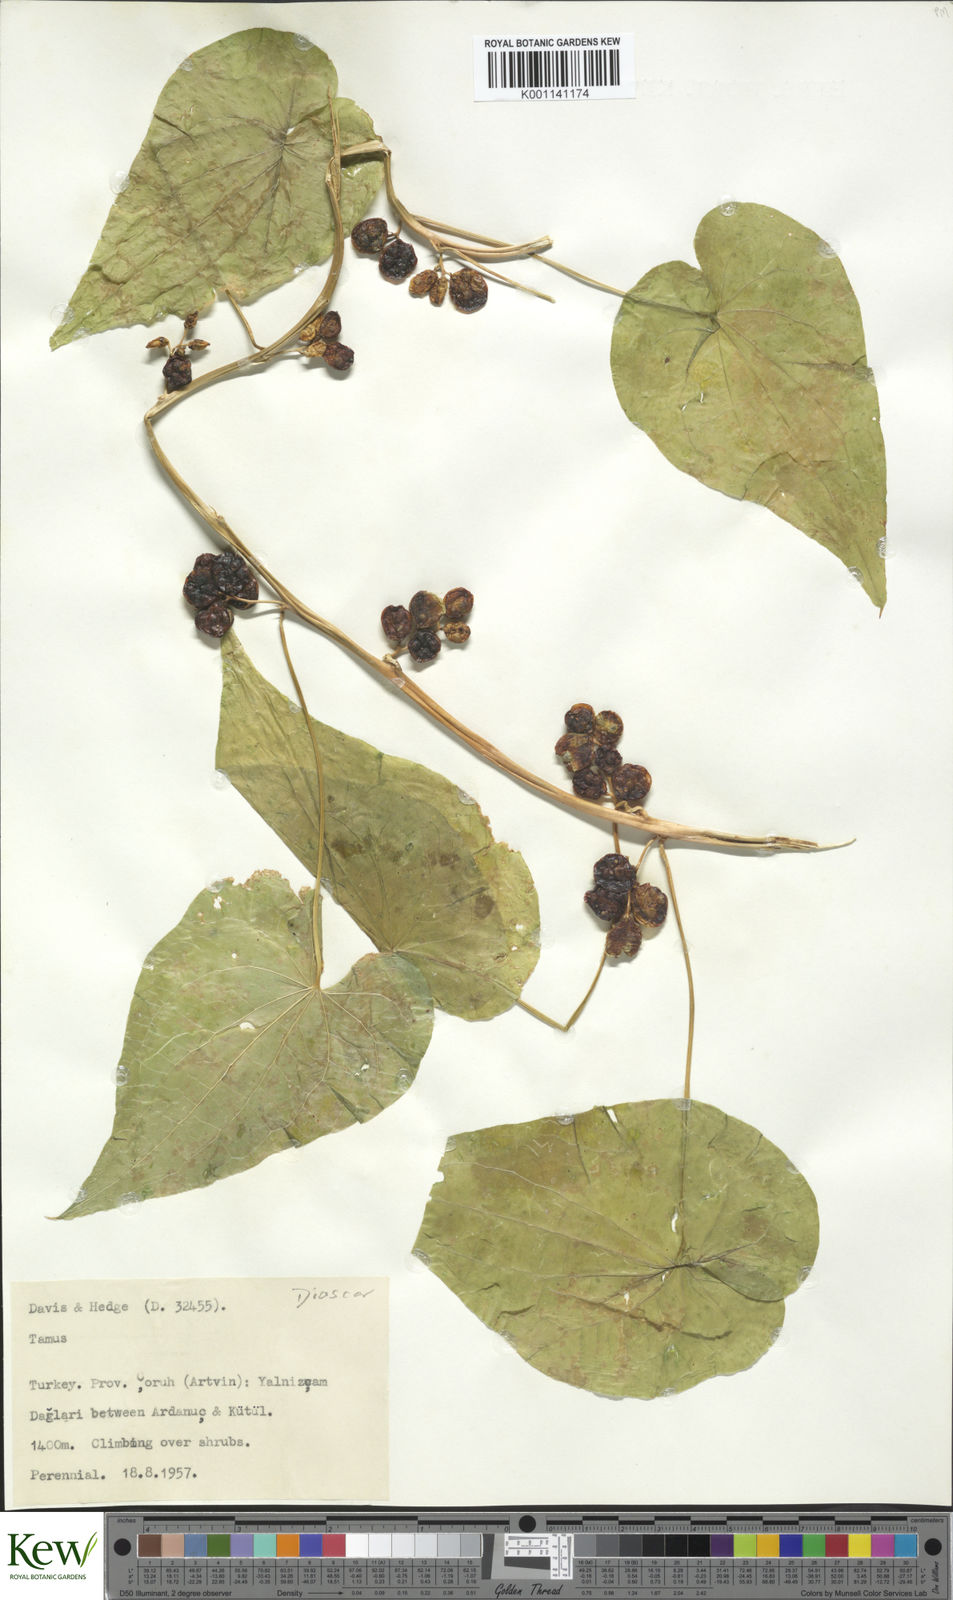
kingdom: Plantae
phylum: Tracheophyta
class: Liliopsida
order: Dioscoreales
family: Dioscoreaceae
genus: Dioscorea
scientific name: Dioscorea communis
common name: Black-bindweed
